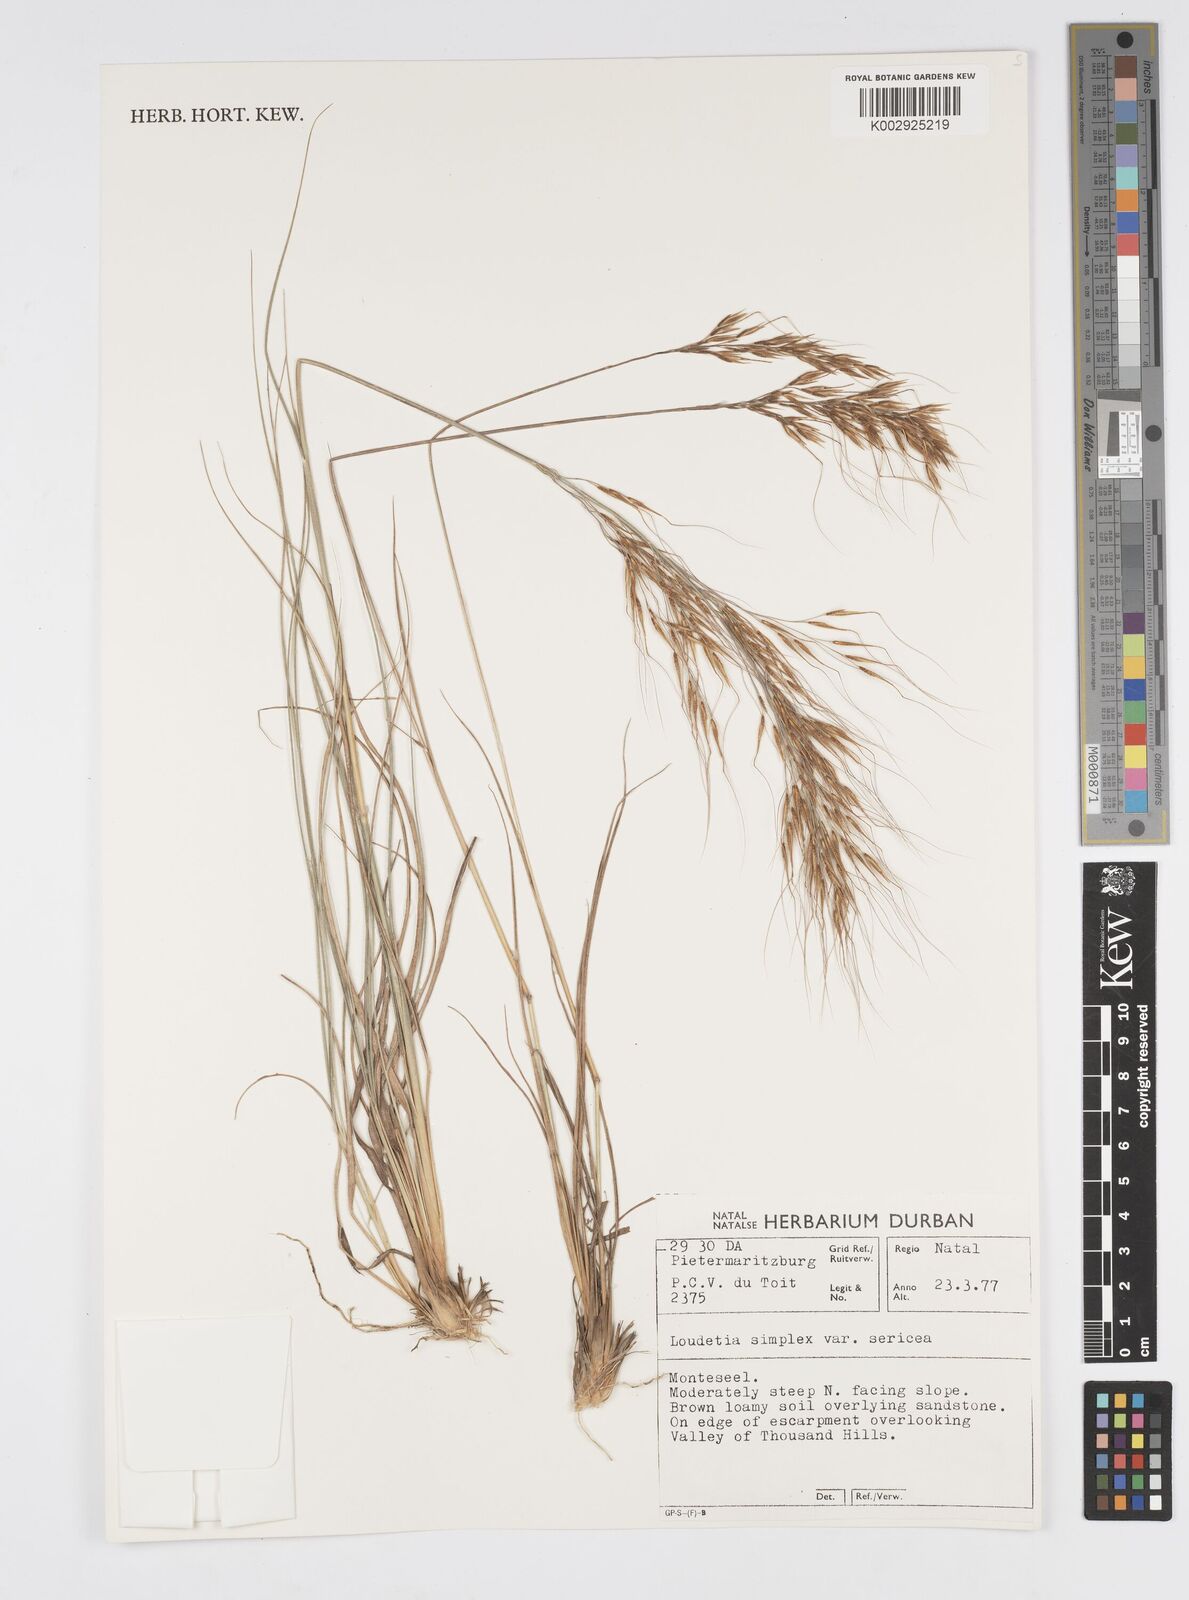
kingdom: Plantae
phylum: Tracheophyta
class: Liliopsida
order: Poales
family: Poaceae
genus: Loudetia
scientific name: Loudetia simplex
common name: Common russet grass
